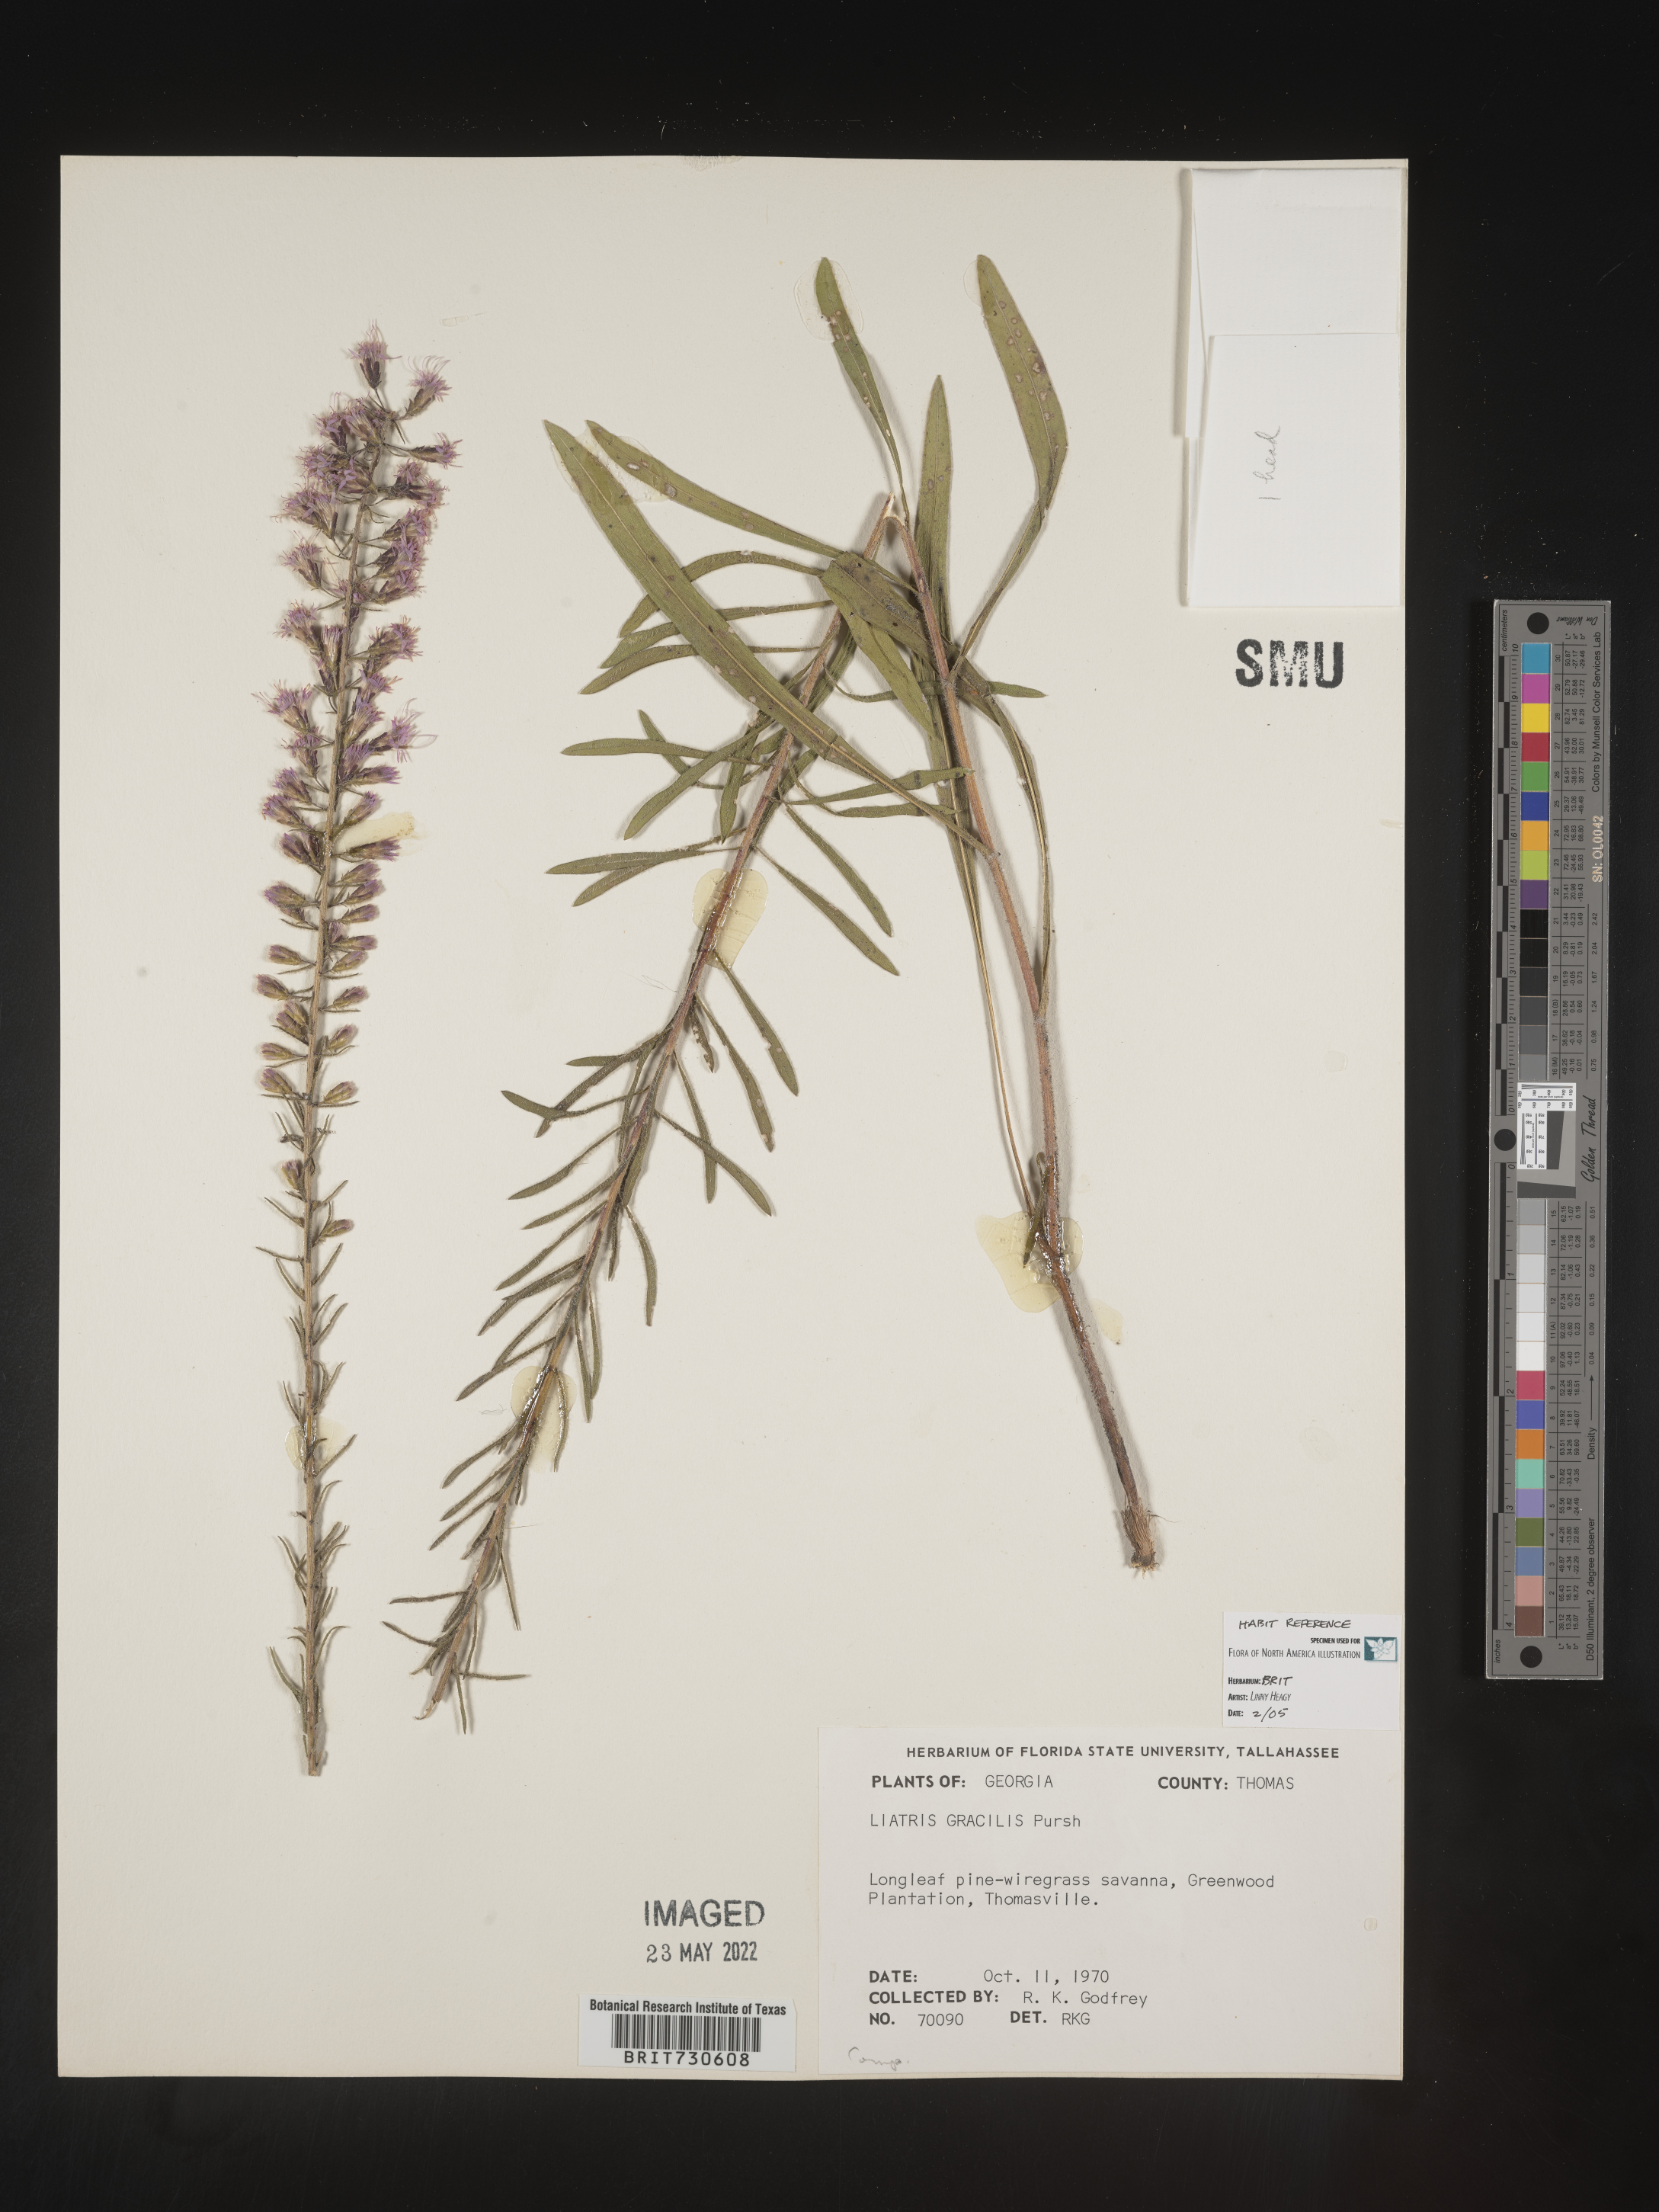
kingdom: Plantae
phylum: Tracheophyta
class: Magnoliopsida
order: Asterales
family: Asteraceae
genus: Liatris
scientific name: Liatris gracilis
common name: Slender gayfeather
